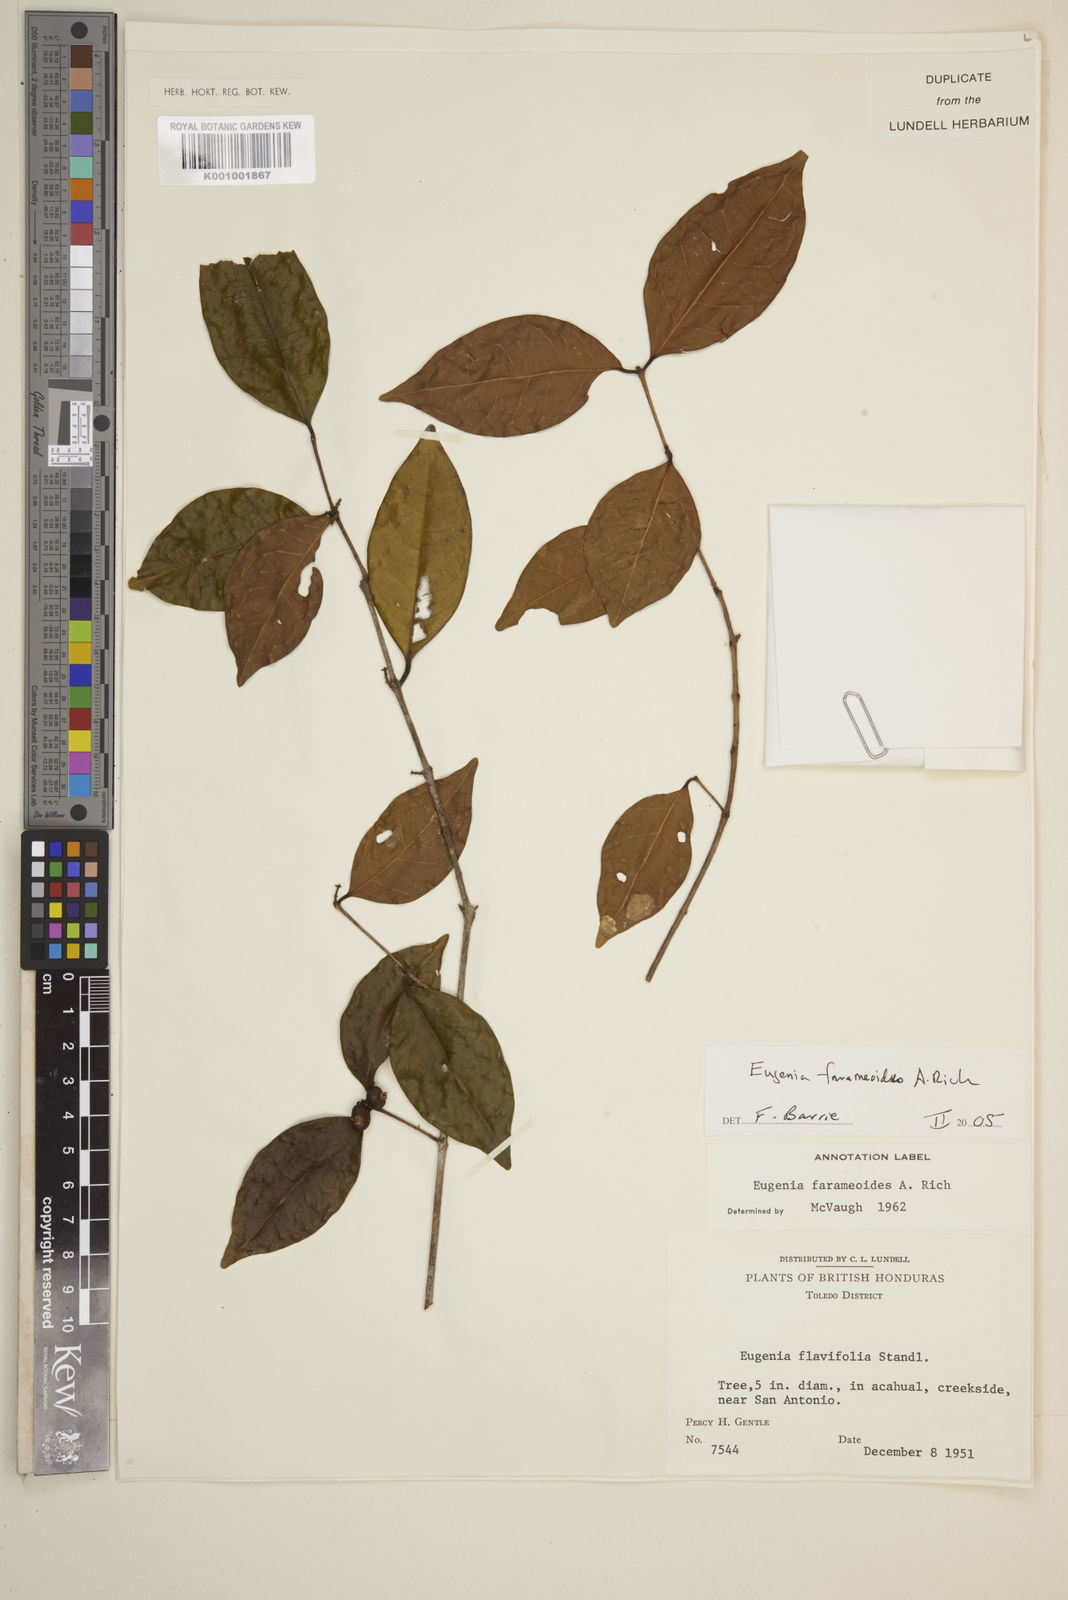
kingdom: Plantae
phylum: Tracheophyta
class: Magnoliopsida
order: Myrtales
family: Myrtaceae
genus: Eugenia
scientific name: Eugenia farameoides
